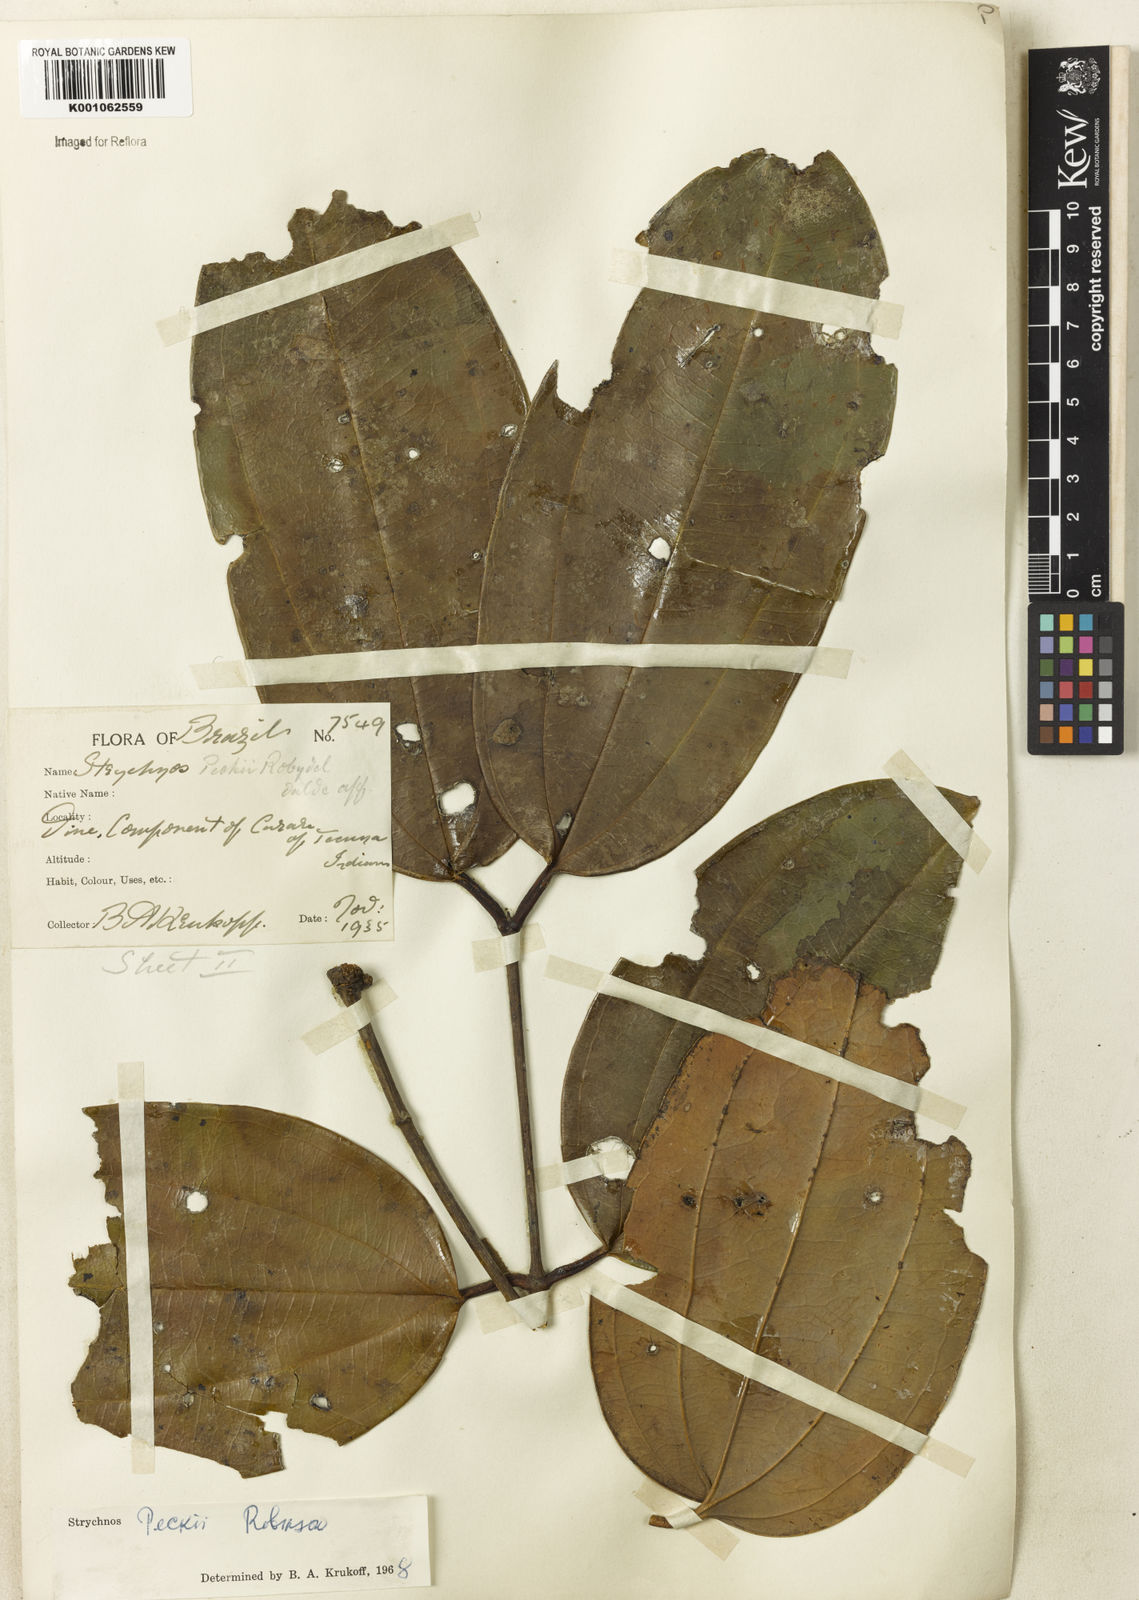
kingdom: Plantae
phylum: Tracheophyta
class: Magnoliopsida
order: Gentianales
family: Loganiaceae
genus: Strychnos
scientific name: Strychnos peckii
